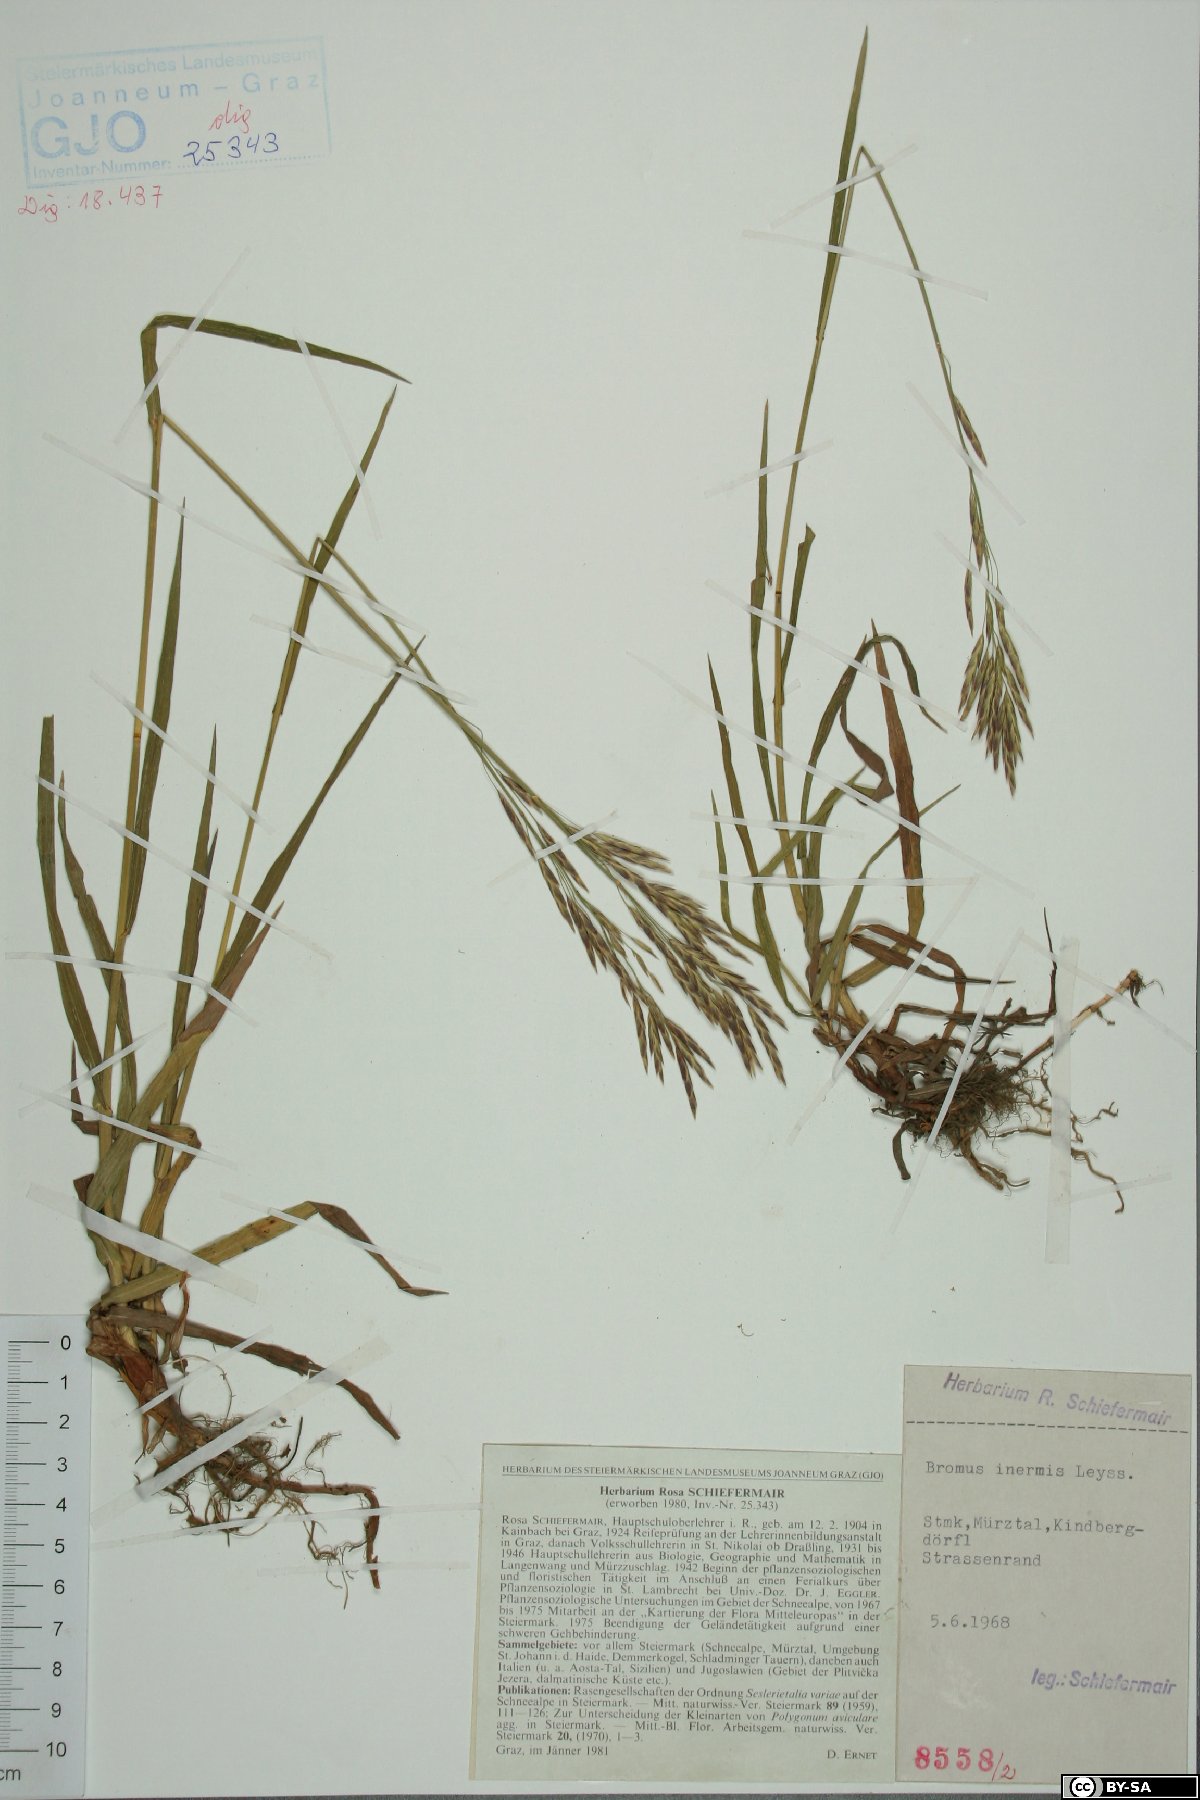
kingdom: Plantae
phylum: Tracheophyta
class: Liliopsida
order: Poales
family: Poaceae
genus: Bromus
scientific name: Bromus inermis
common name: Smooth brome
